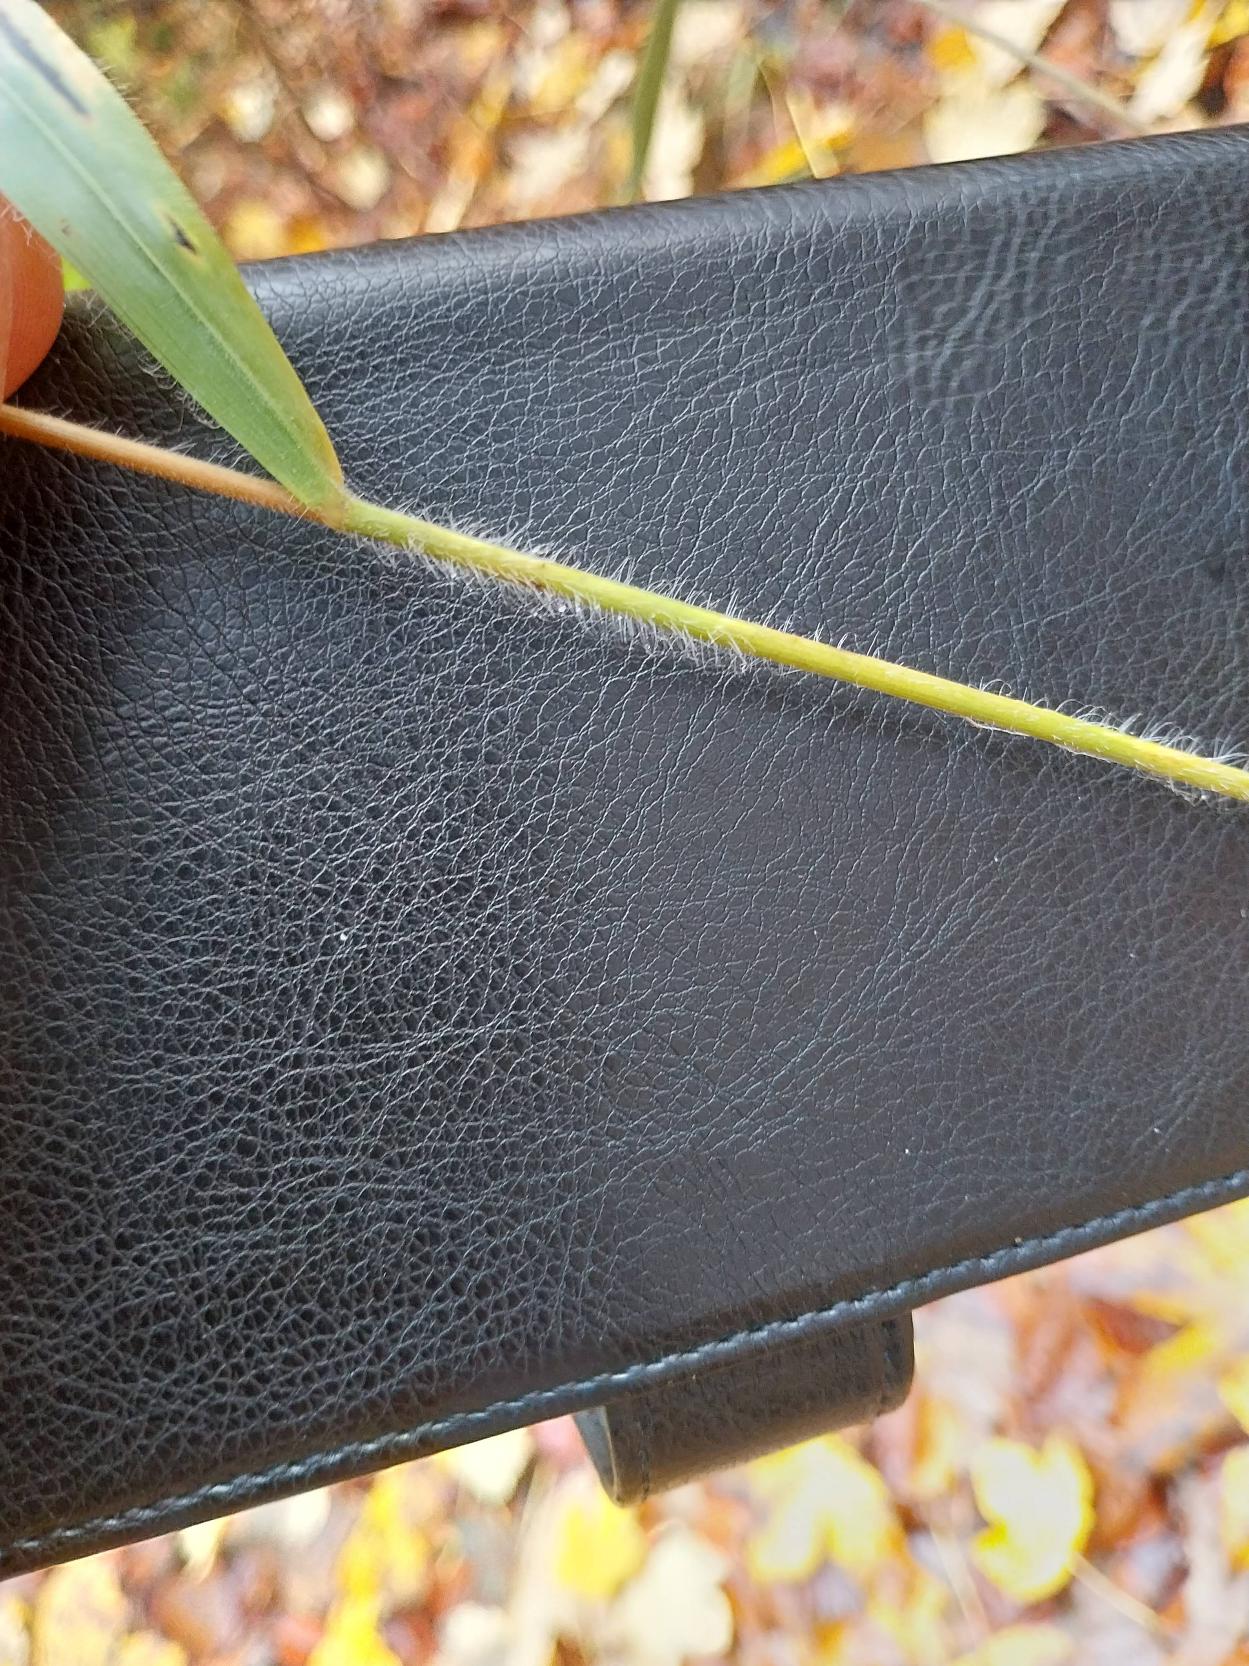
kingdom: Plantae
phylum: Tracheophyta
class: Liliopsida
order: Poales
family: Poaceae
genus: Bromus
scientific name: Bromus ramosus
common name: Sildig skov-hejre
